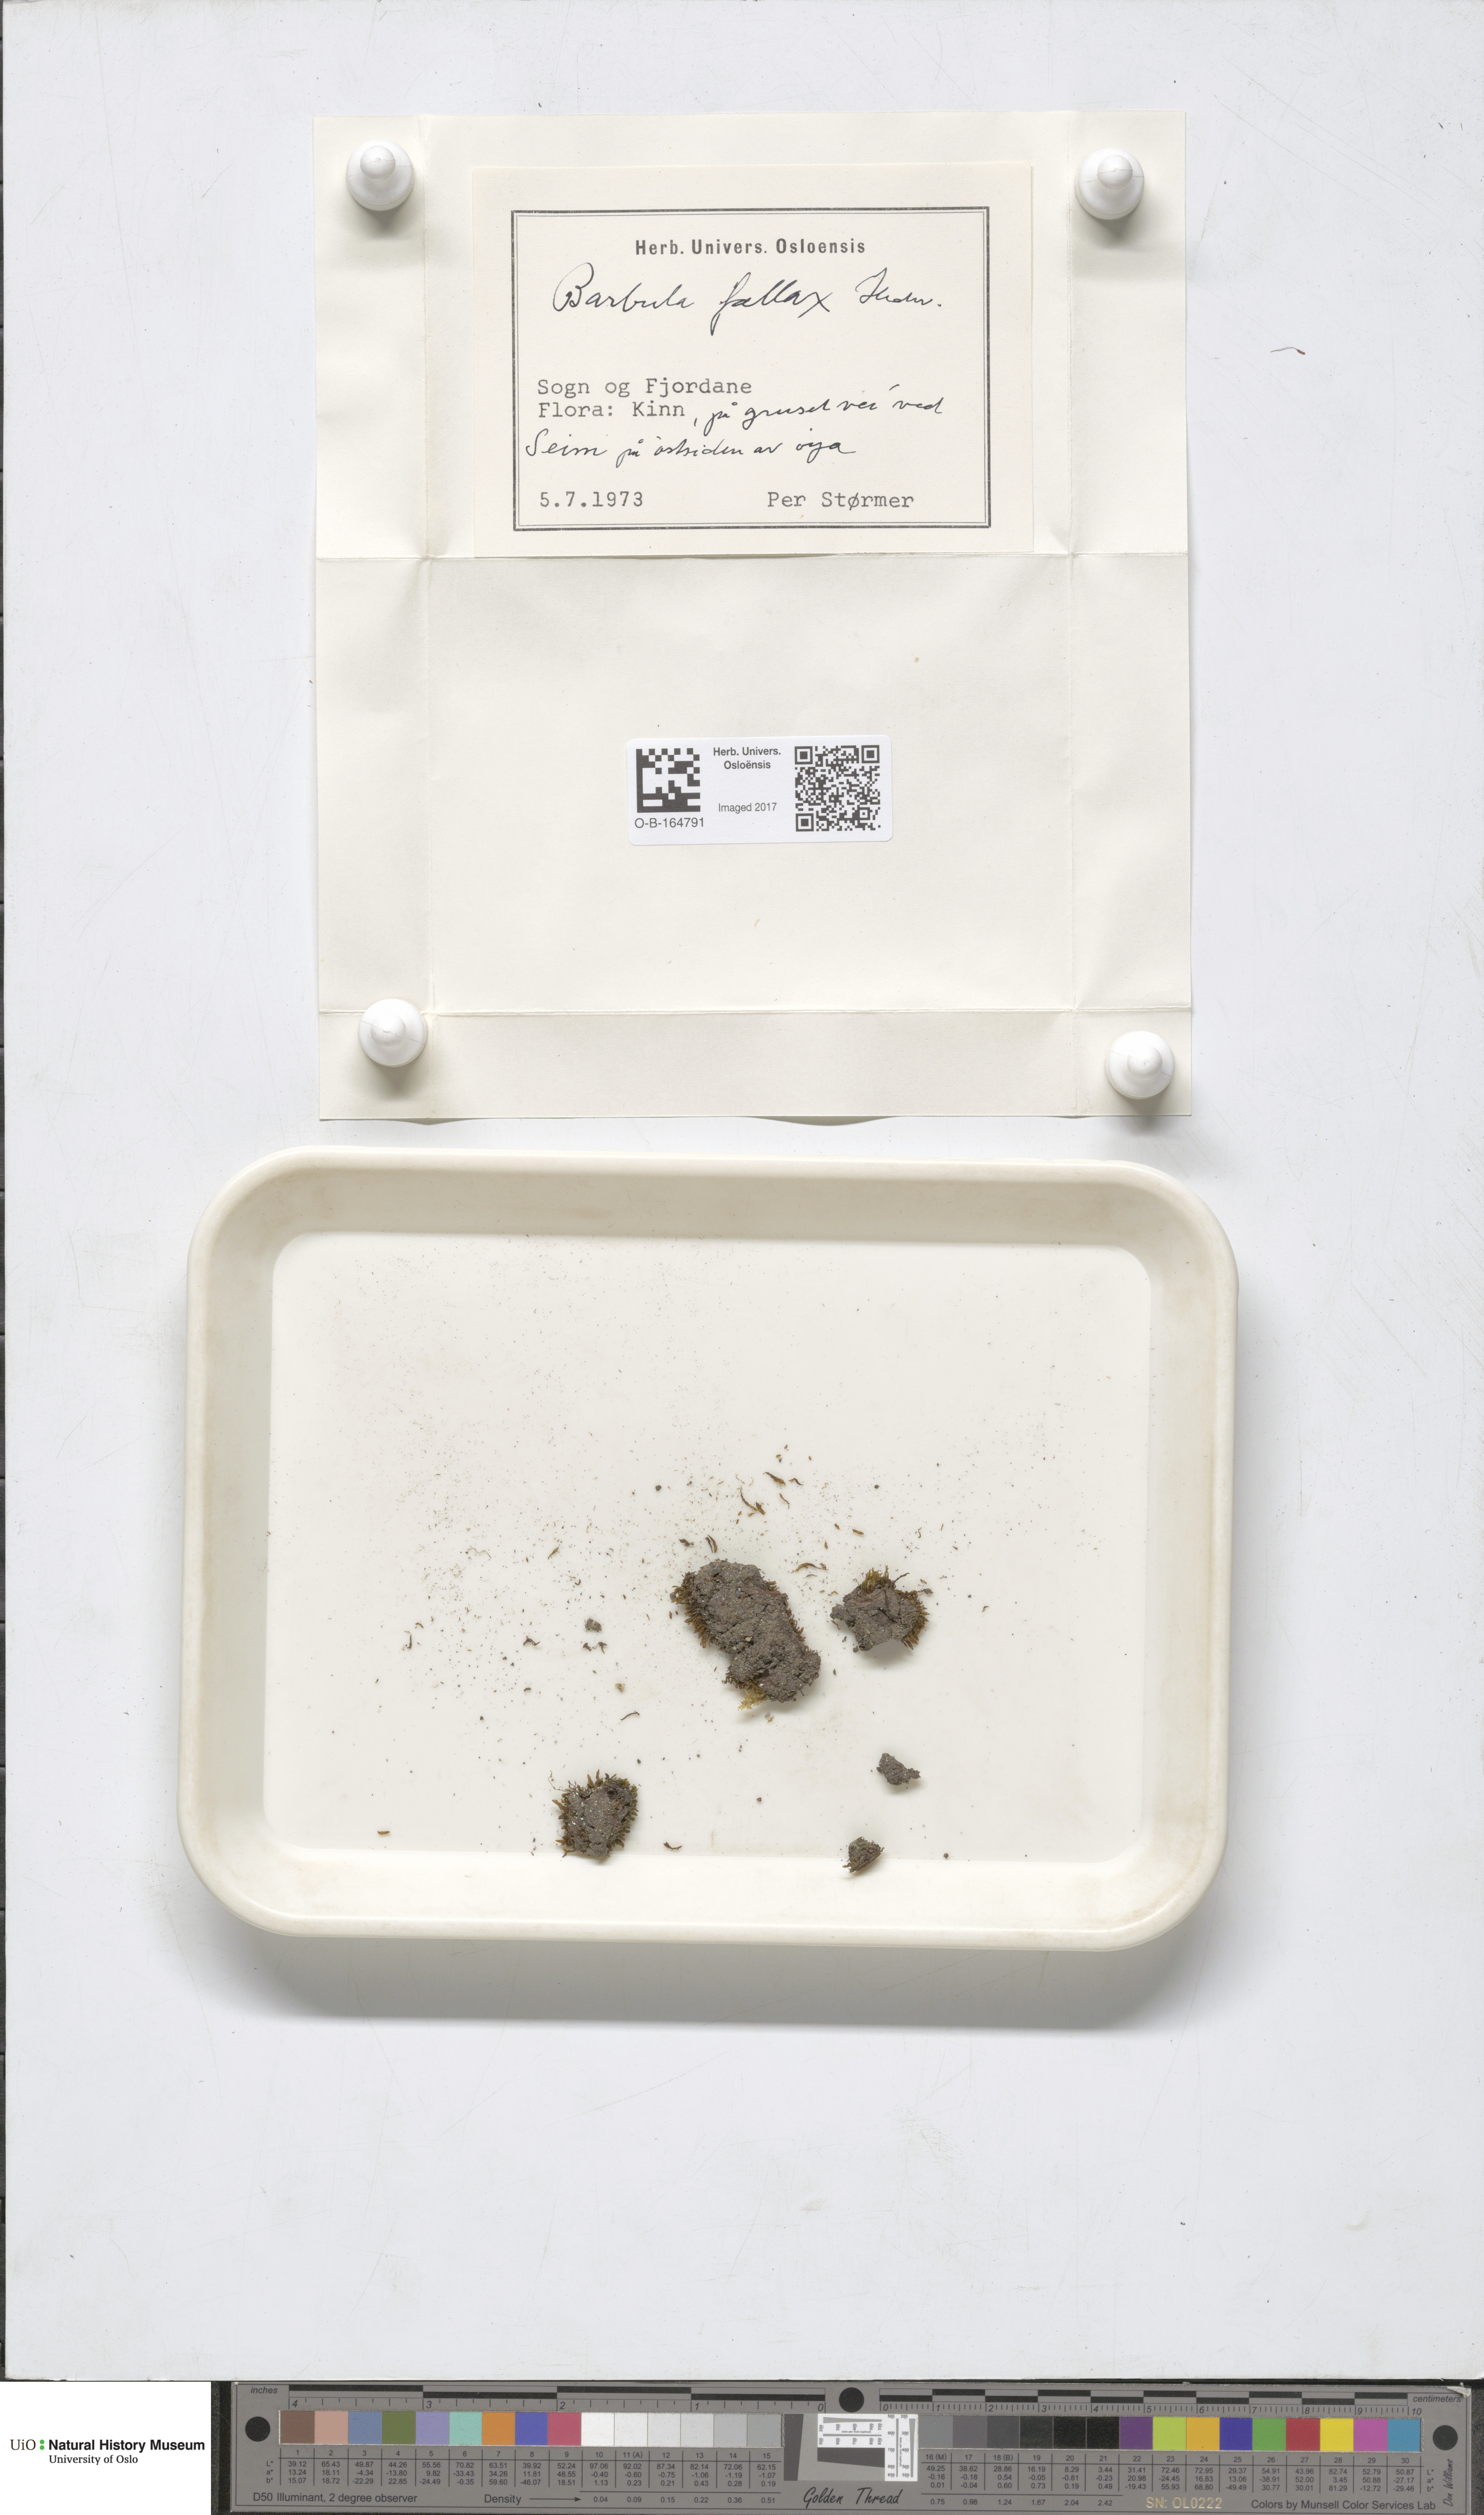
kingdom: Plantae
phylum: Bryophyta
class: Bryopsida
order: Pottiales
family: Pottiaceae
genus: Geheebia
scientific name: Geheebia fallax
